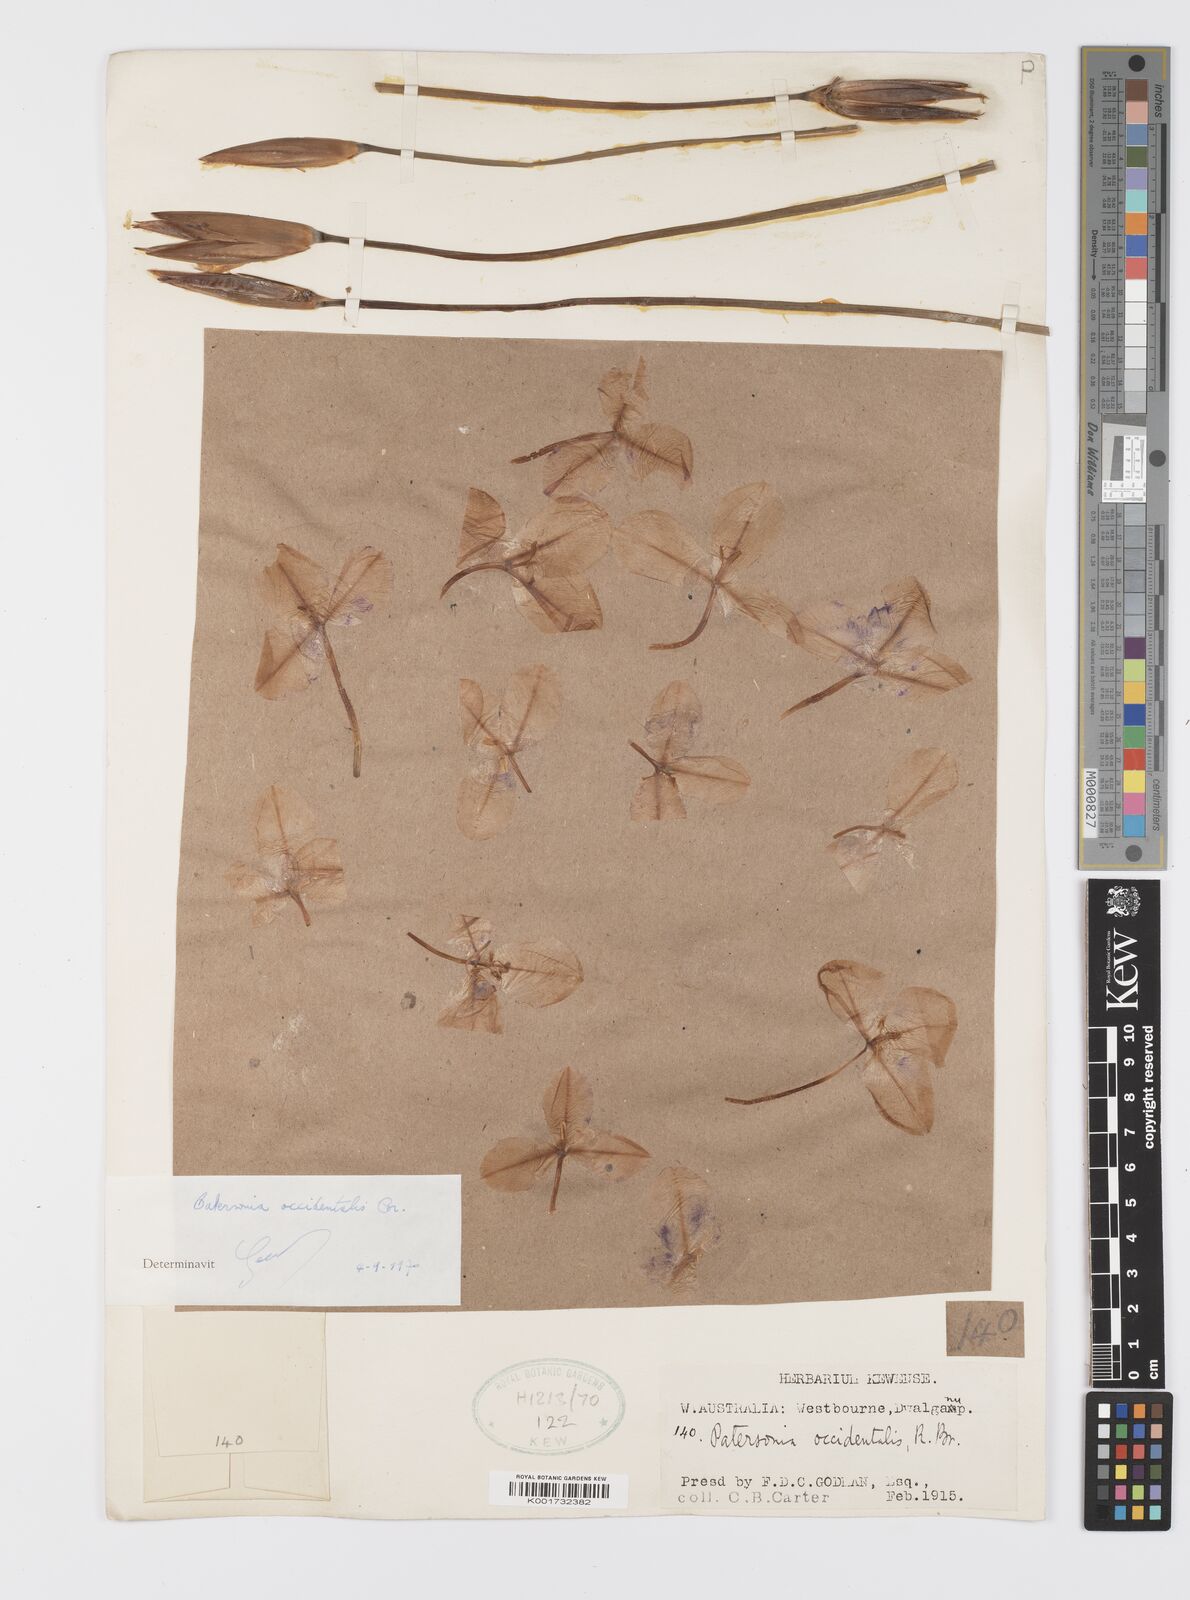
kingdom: Plantae
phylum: Tracheophyta
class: Liliopsida
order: Asparagales
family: Iridaceae
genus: Patersonia
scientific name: Patersonia occidentalis
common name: Long purple-flag
